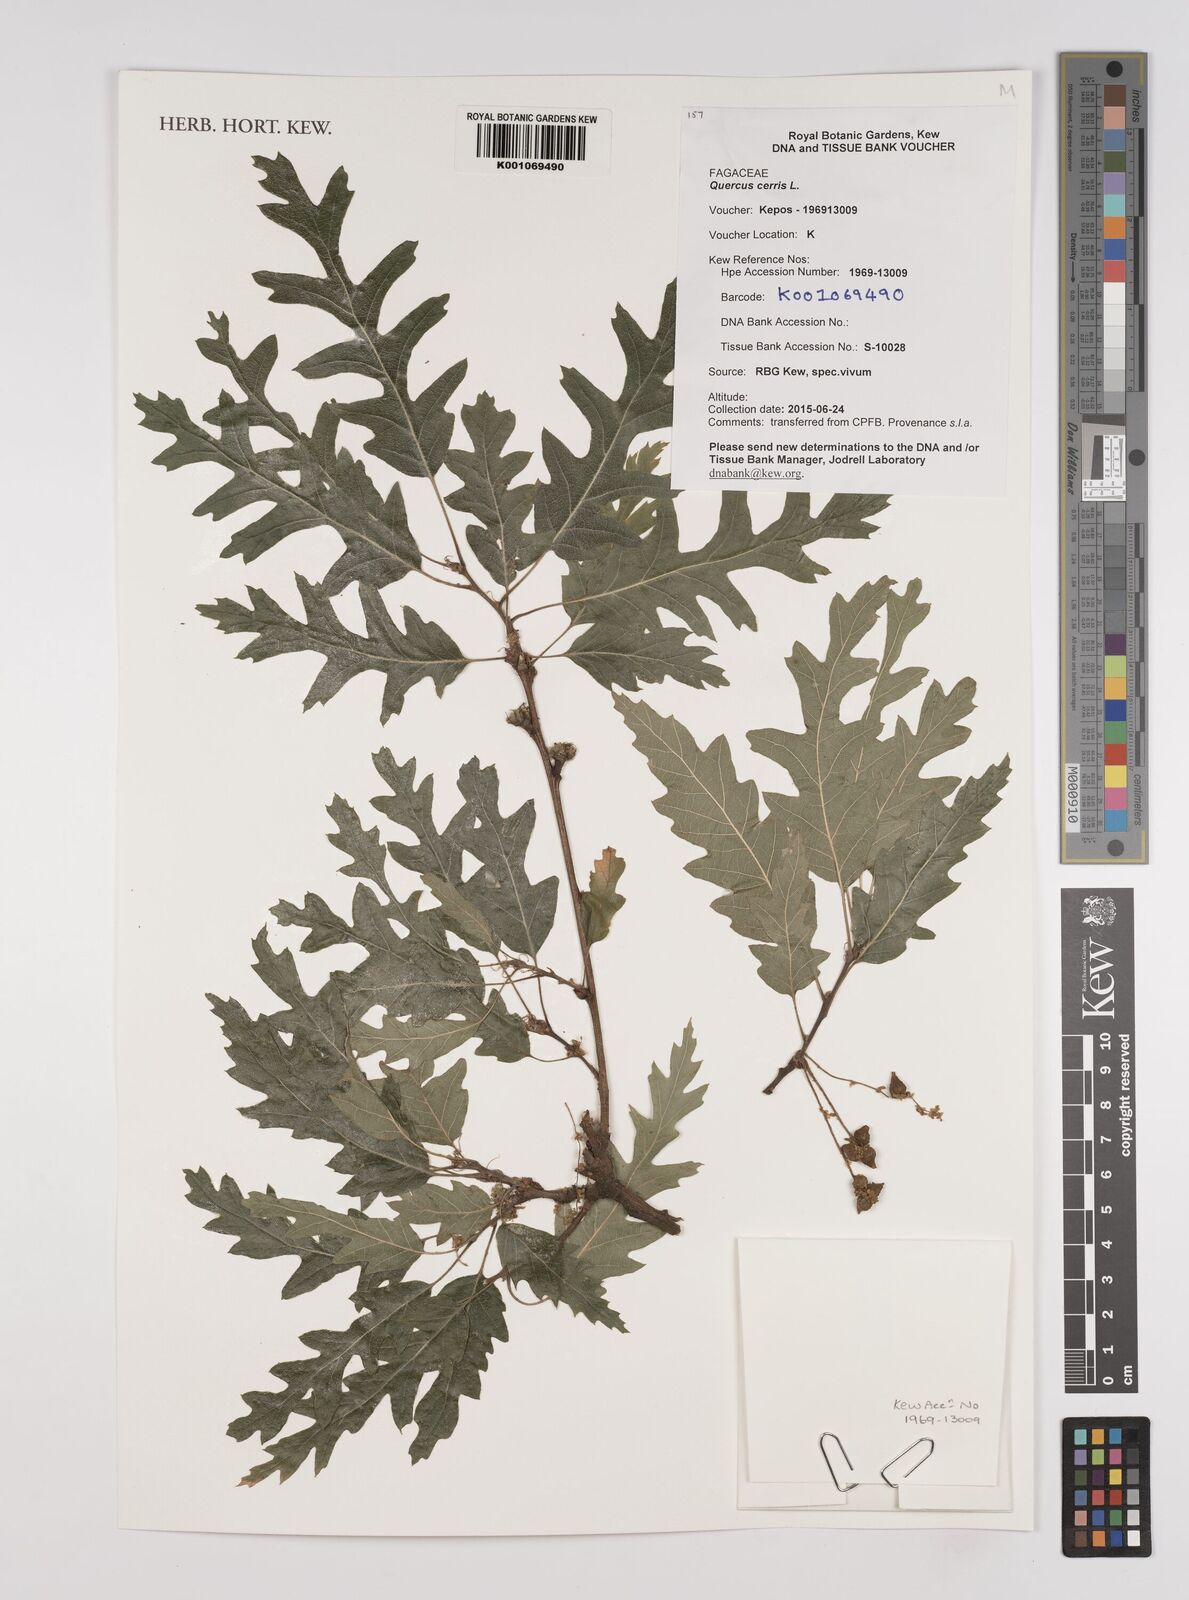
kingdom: Plantae
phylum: Tracheophyta
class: Magnoliopsida
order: Fagales
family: Fagaceae
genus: Quercus
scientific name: Quercus cerris
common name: Turkey oak
